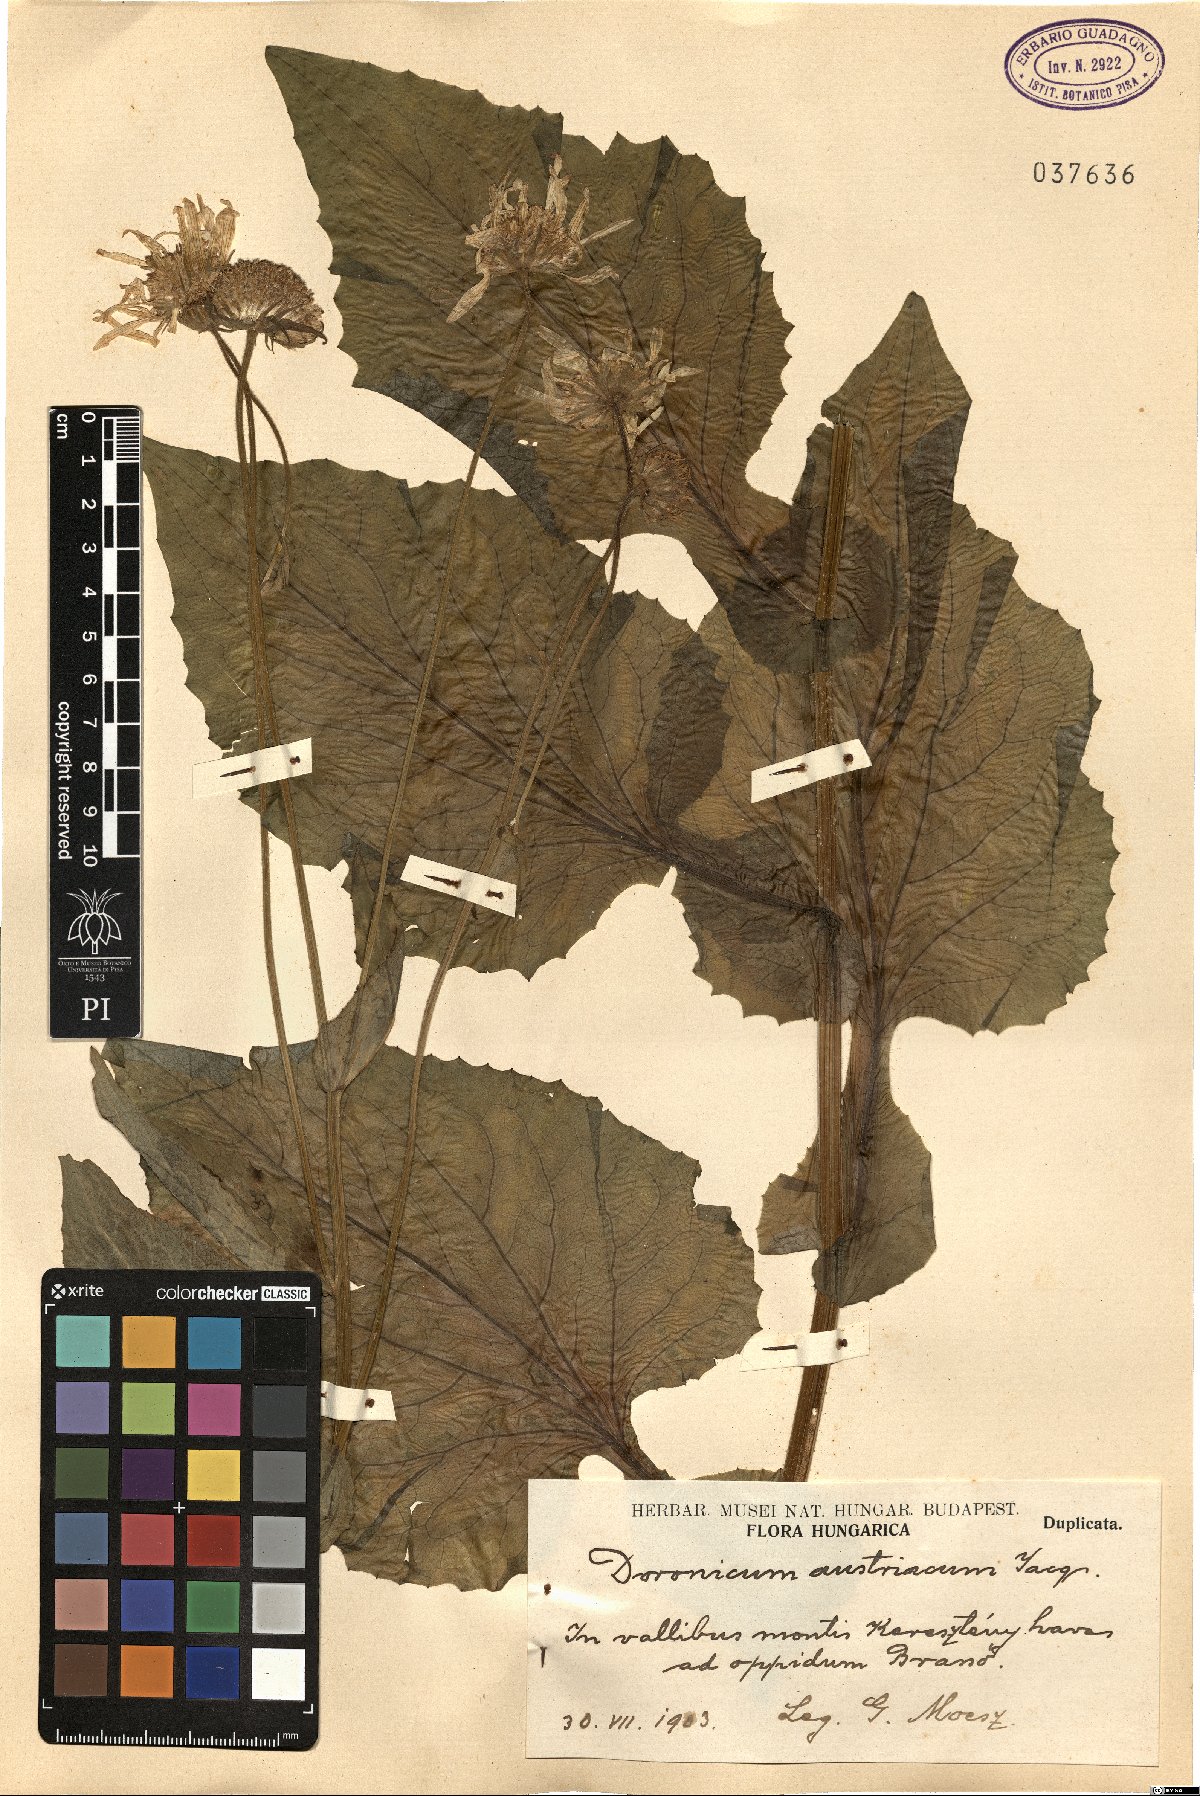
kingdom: Plantae
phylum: Tracheophyta
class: Magnoliopsida
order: Asterales
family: Asteraceae
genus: Doronicum
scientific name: Doronicum austriacum
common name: Austrian leopard's-bane
